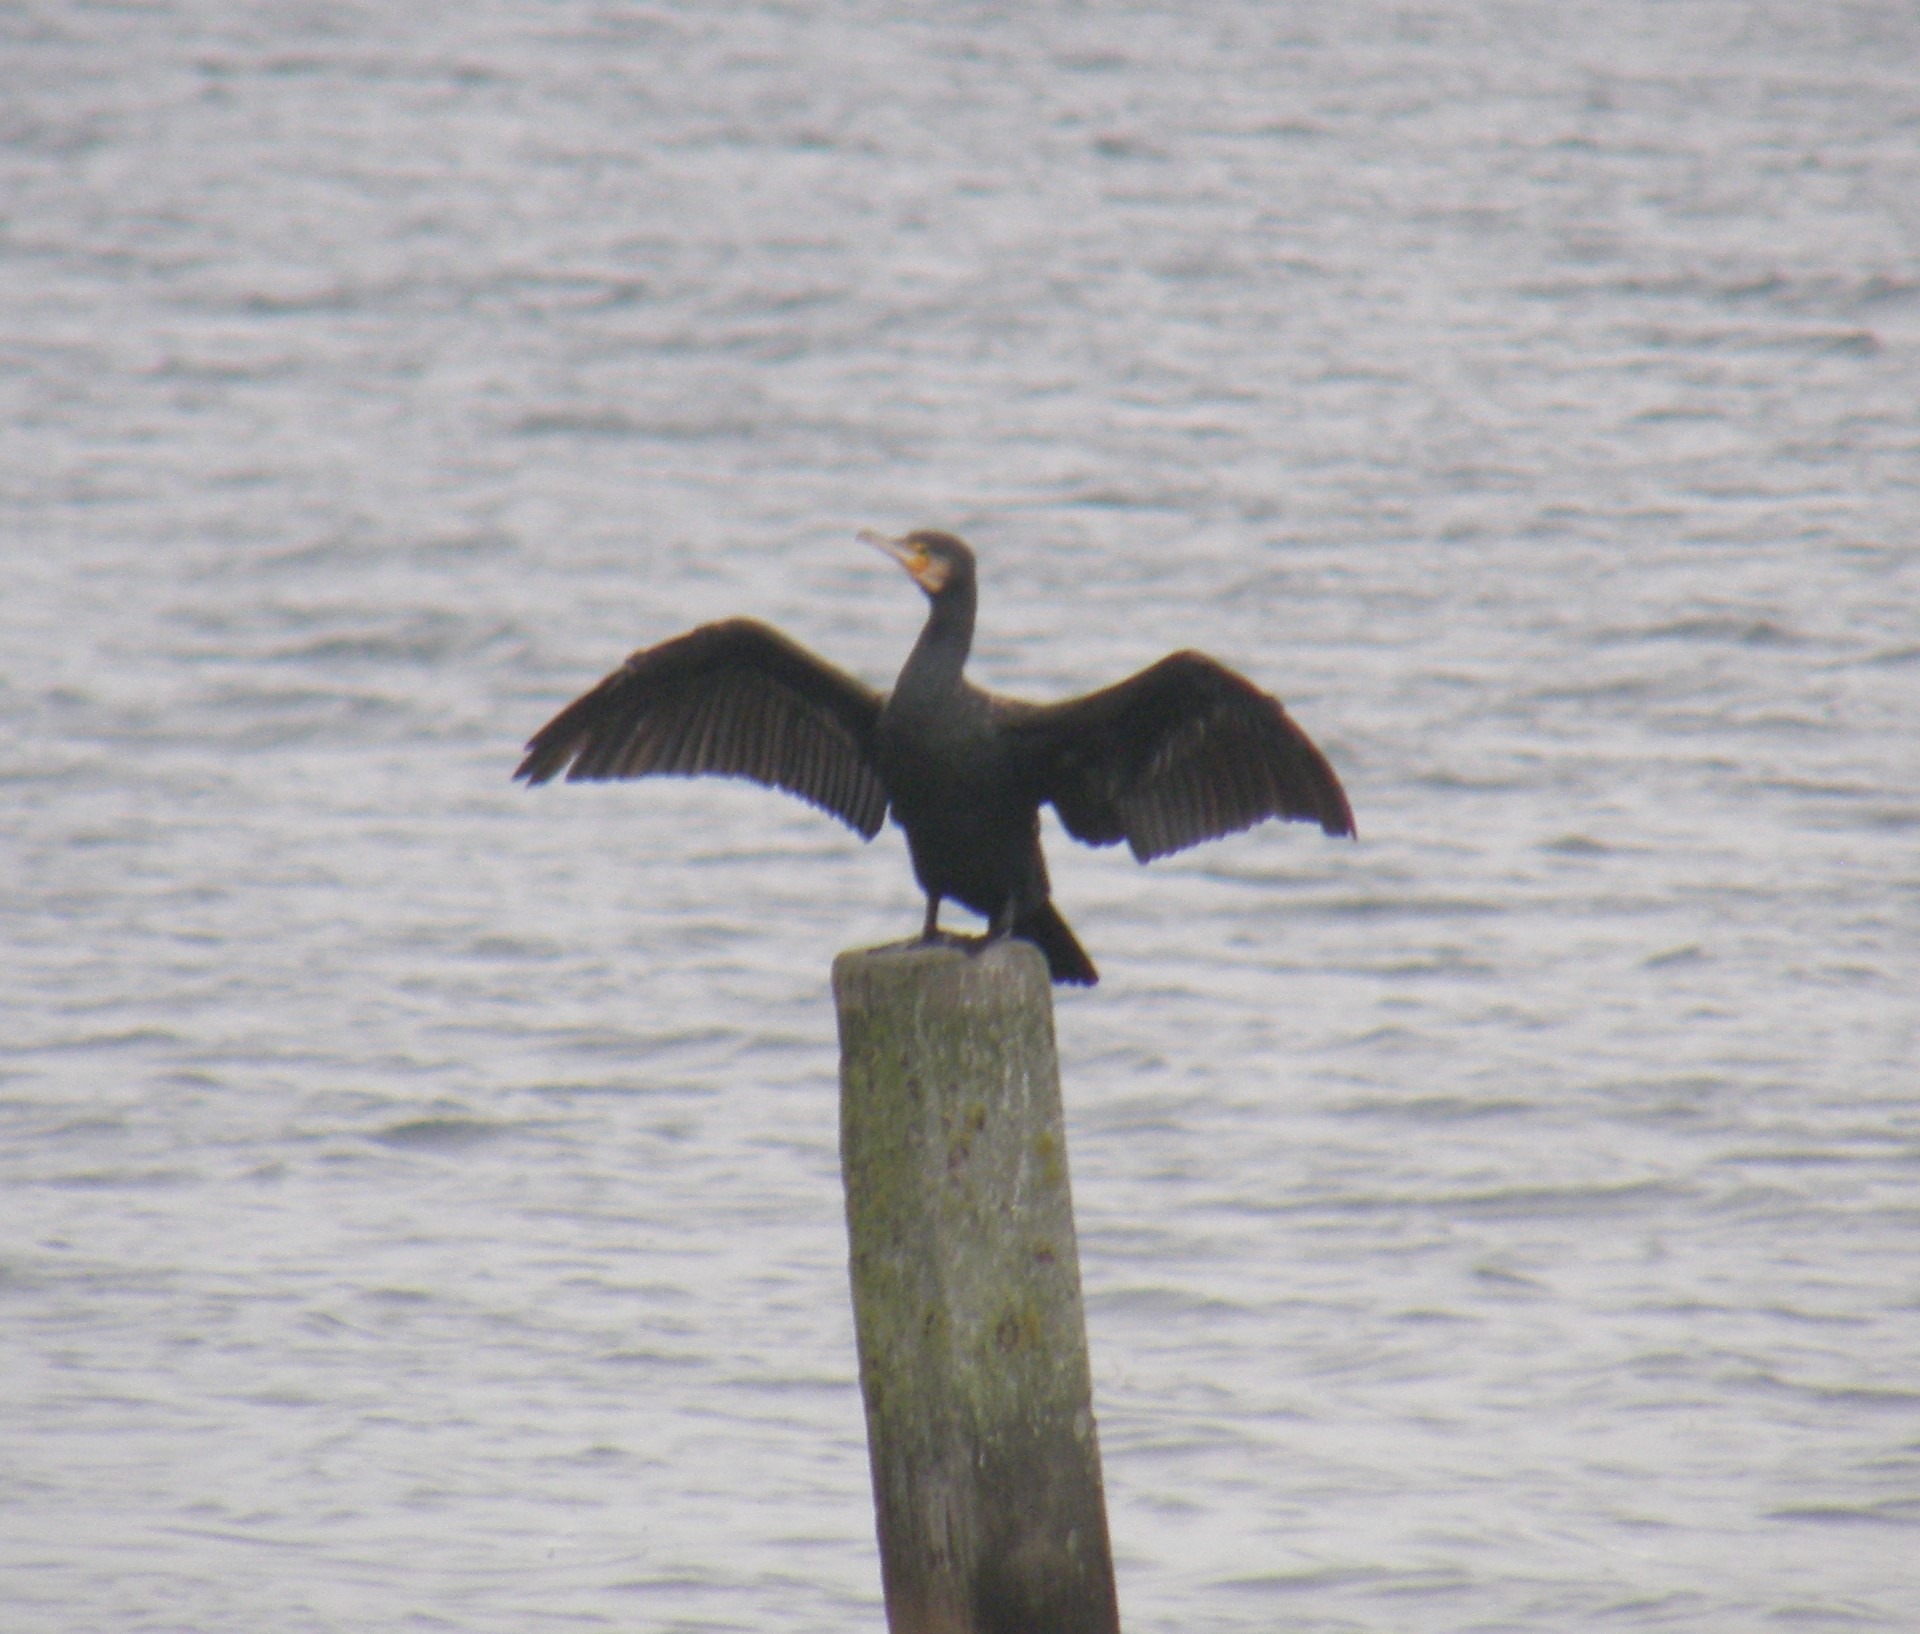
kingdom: Animalia
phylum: Chordata
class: Aves
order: Suliformes
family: Phalacrocoracidae
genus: Phalacrocorax
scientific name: Phalacrocorax carbo
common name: Skarv
